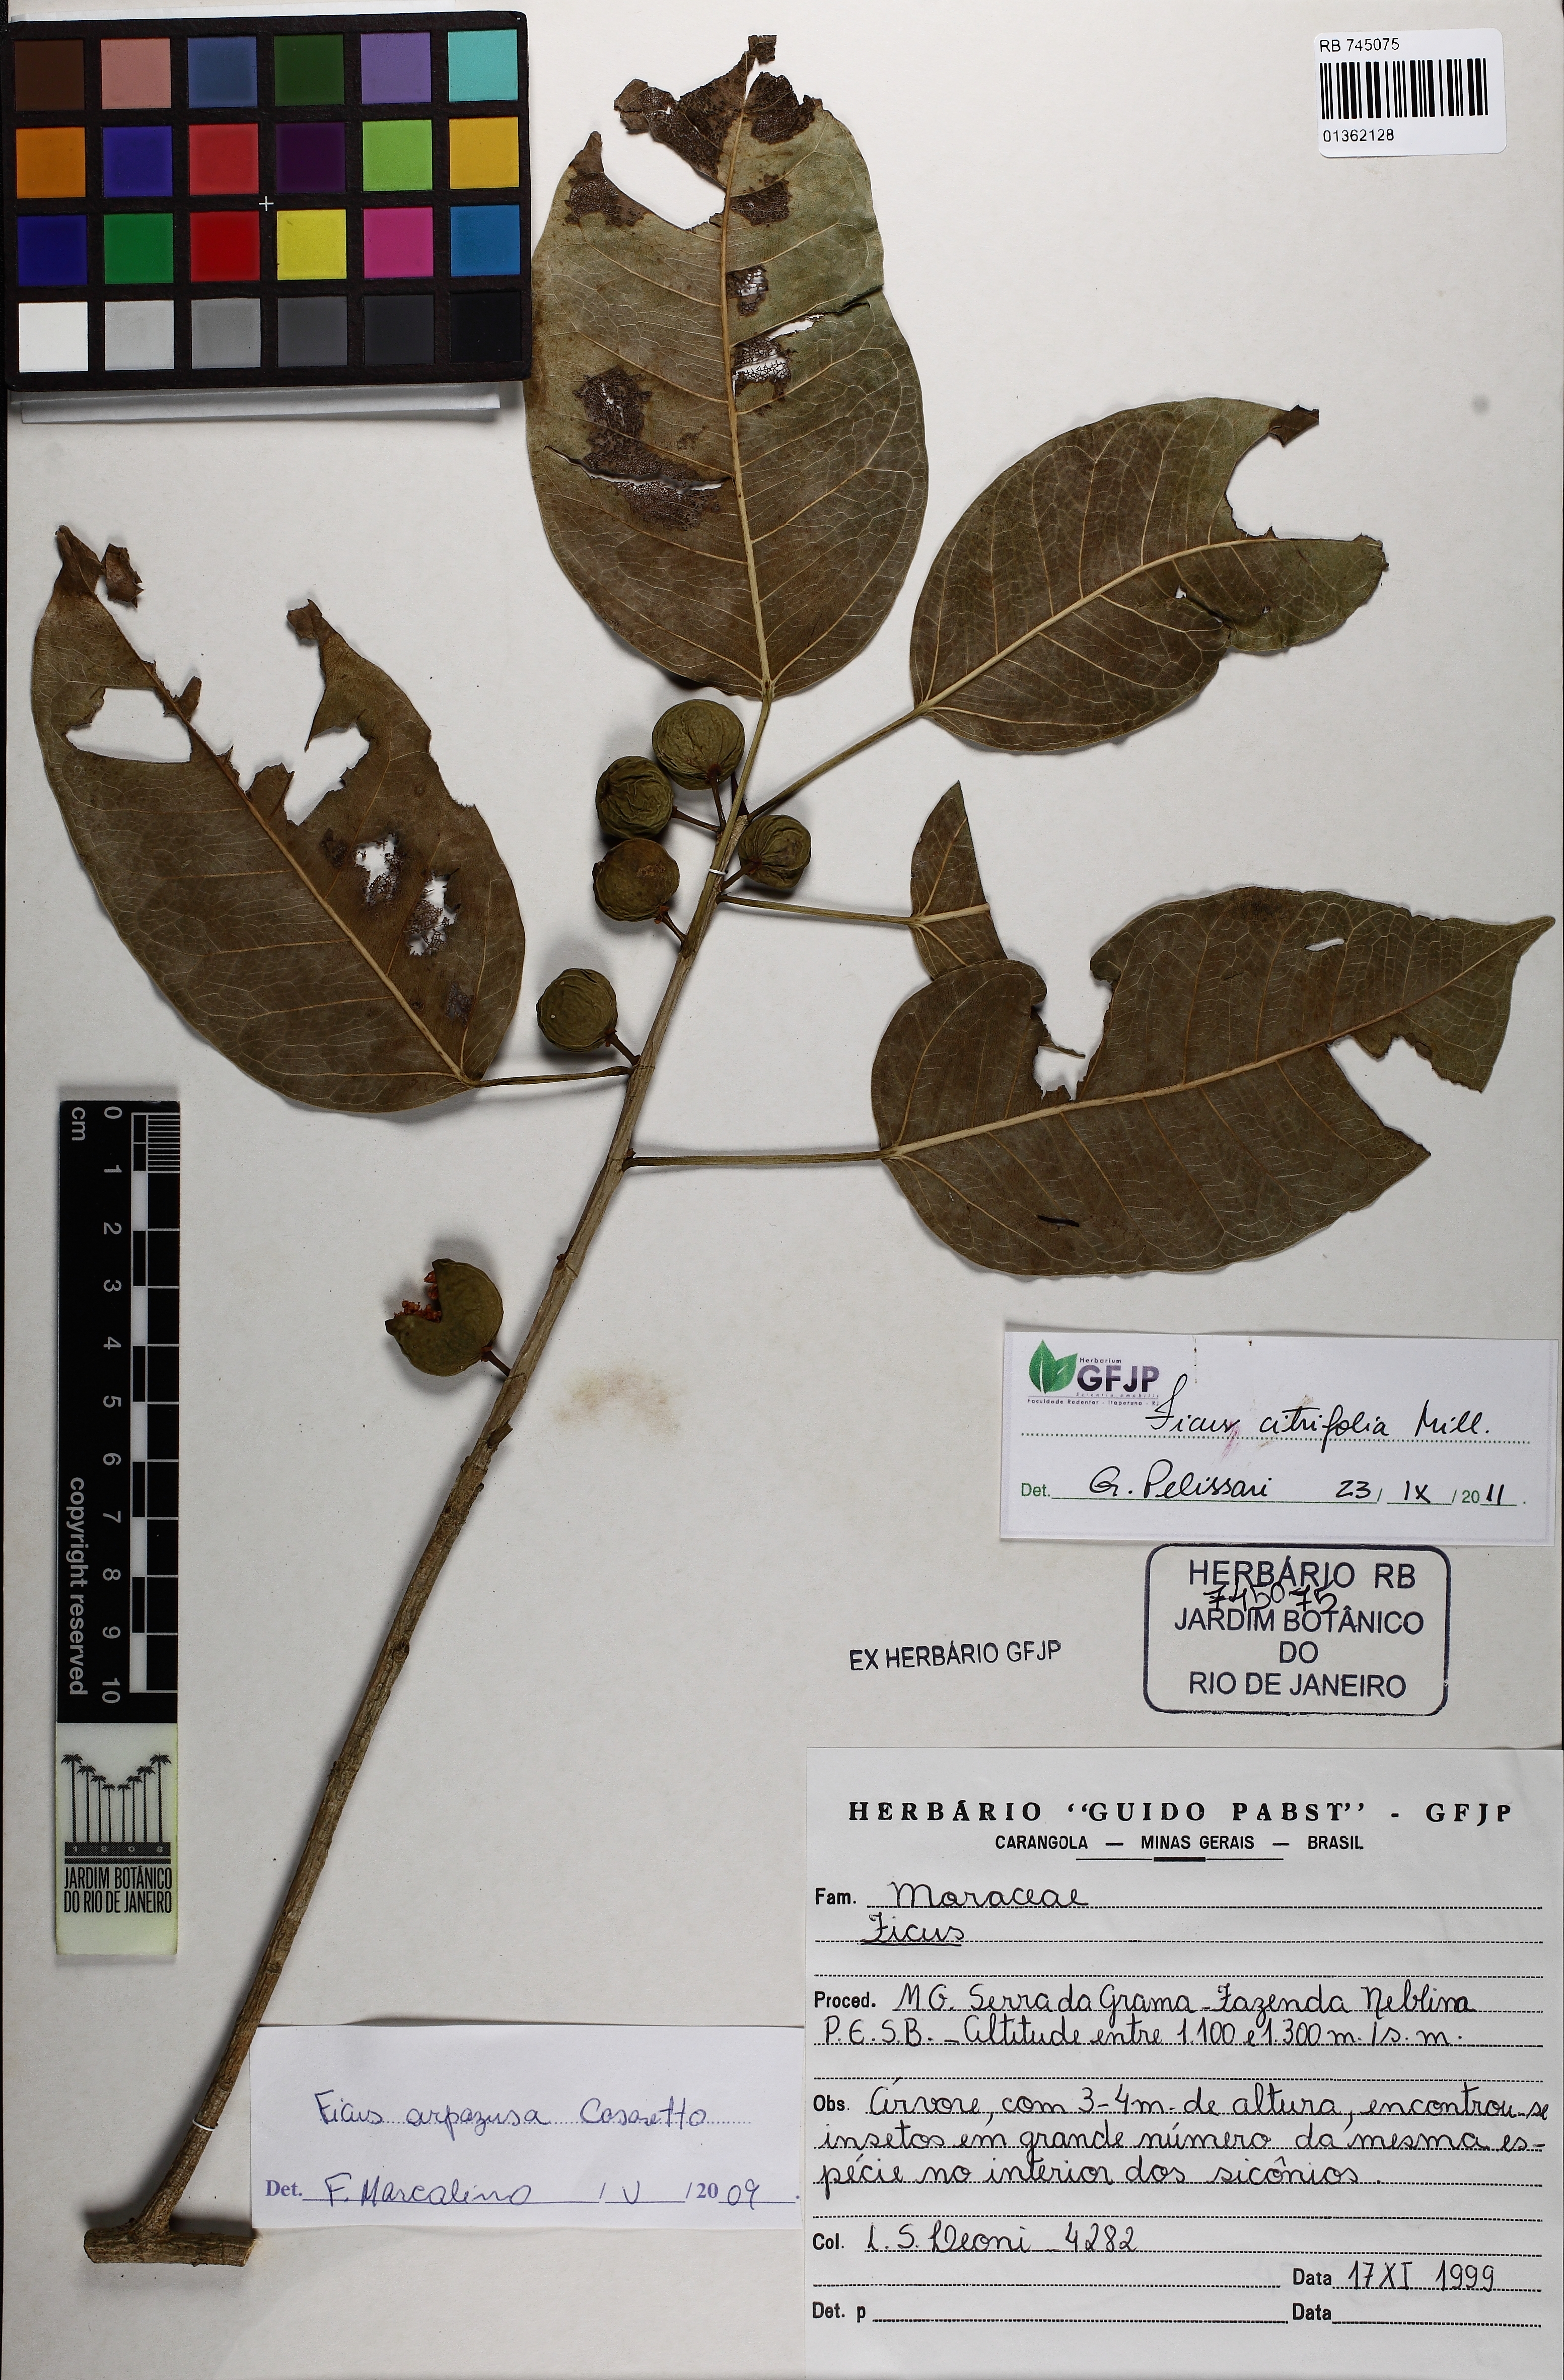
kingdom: Plantae
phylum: Tracheophyta
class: Magnoliopsida
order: Rosales
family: Moraceae
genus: Ficus
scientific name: Ficus arpazusa
